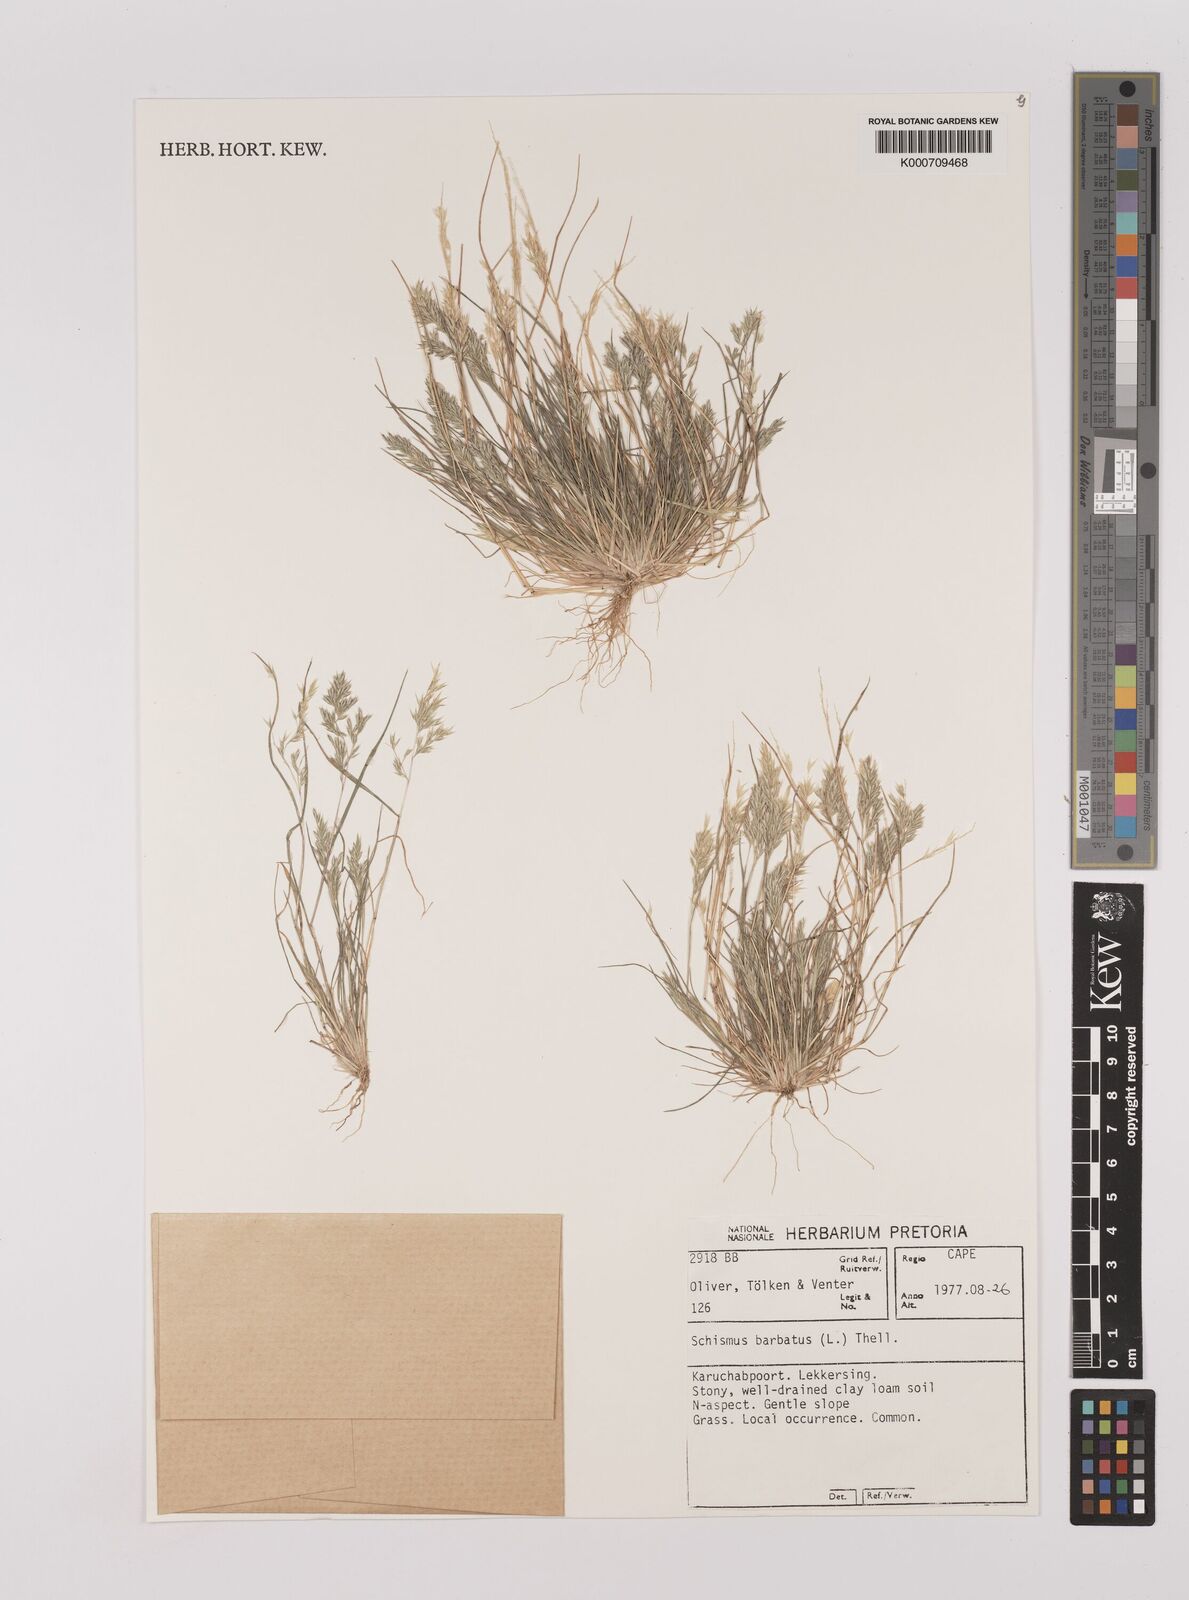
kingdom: Plantae
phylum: Tracheophyta
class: Liliopsida
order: Poales
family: Poaceae
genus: Schismus
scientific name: Schismus barbatus
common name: Kelch-grass
